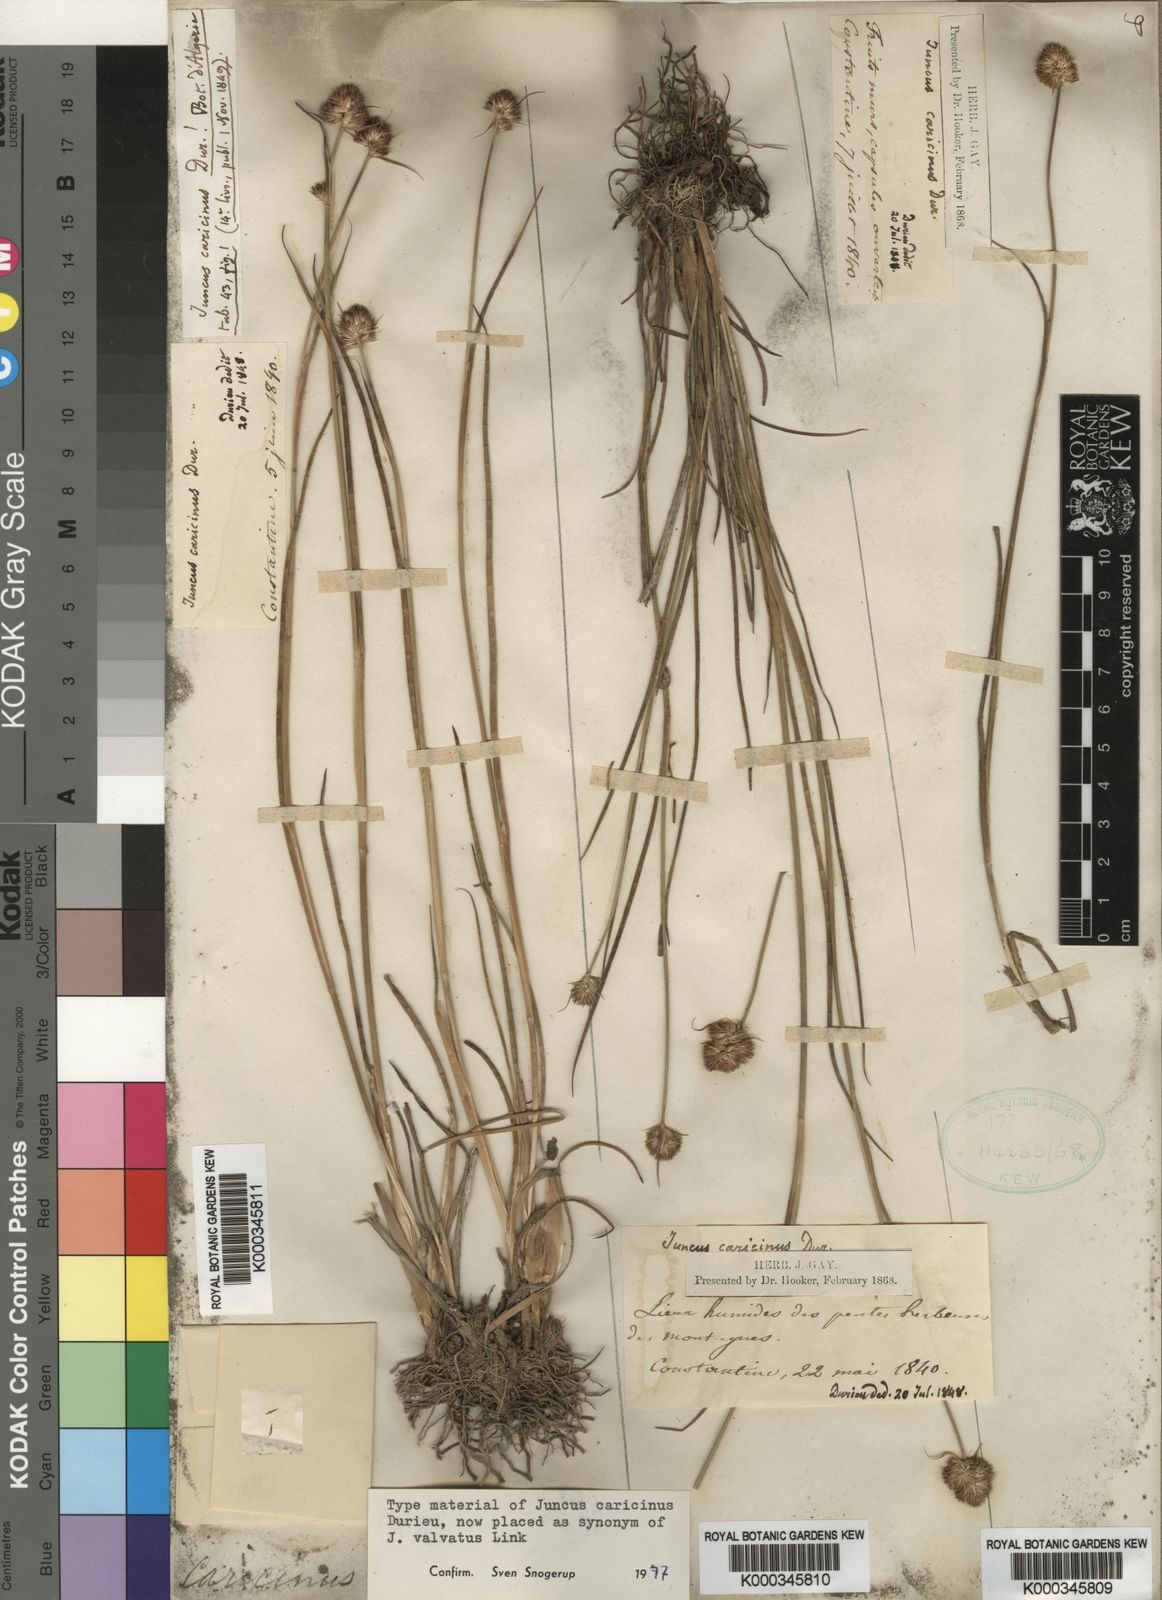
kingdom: Plantae
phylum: Tracheophyta
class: Liliopsida
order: Poales
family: Juncaceae
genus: Juncus
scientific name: Juncus valvatus
